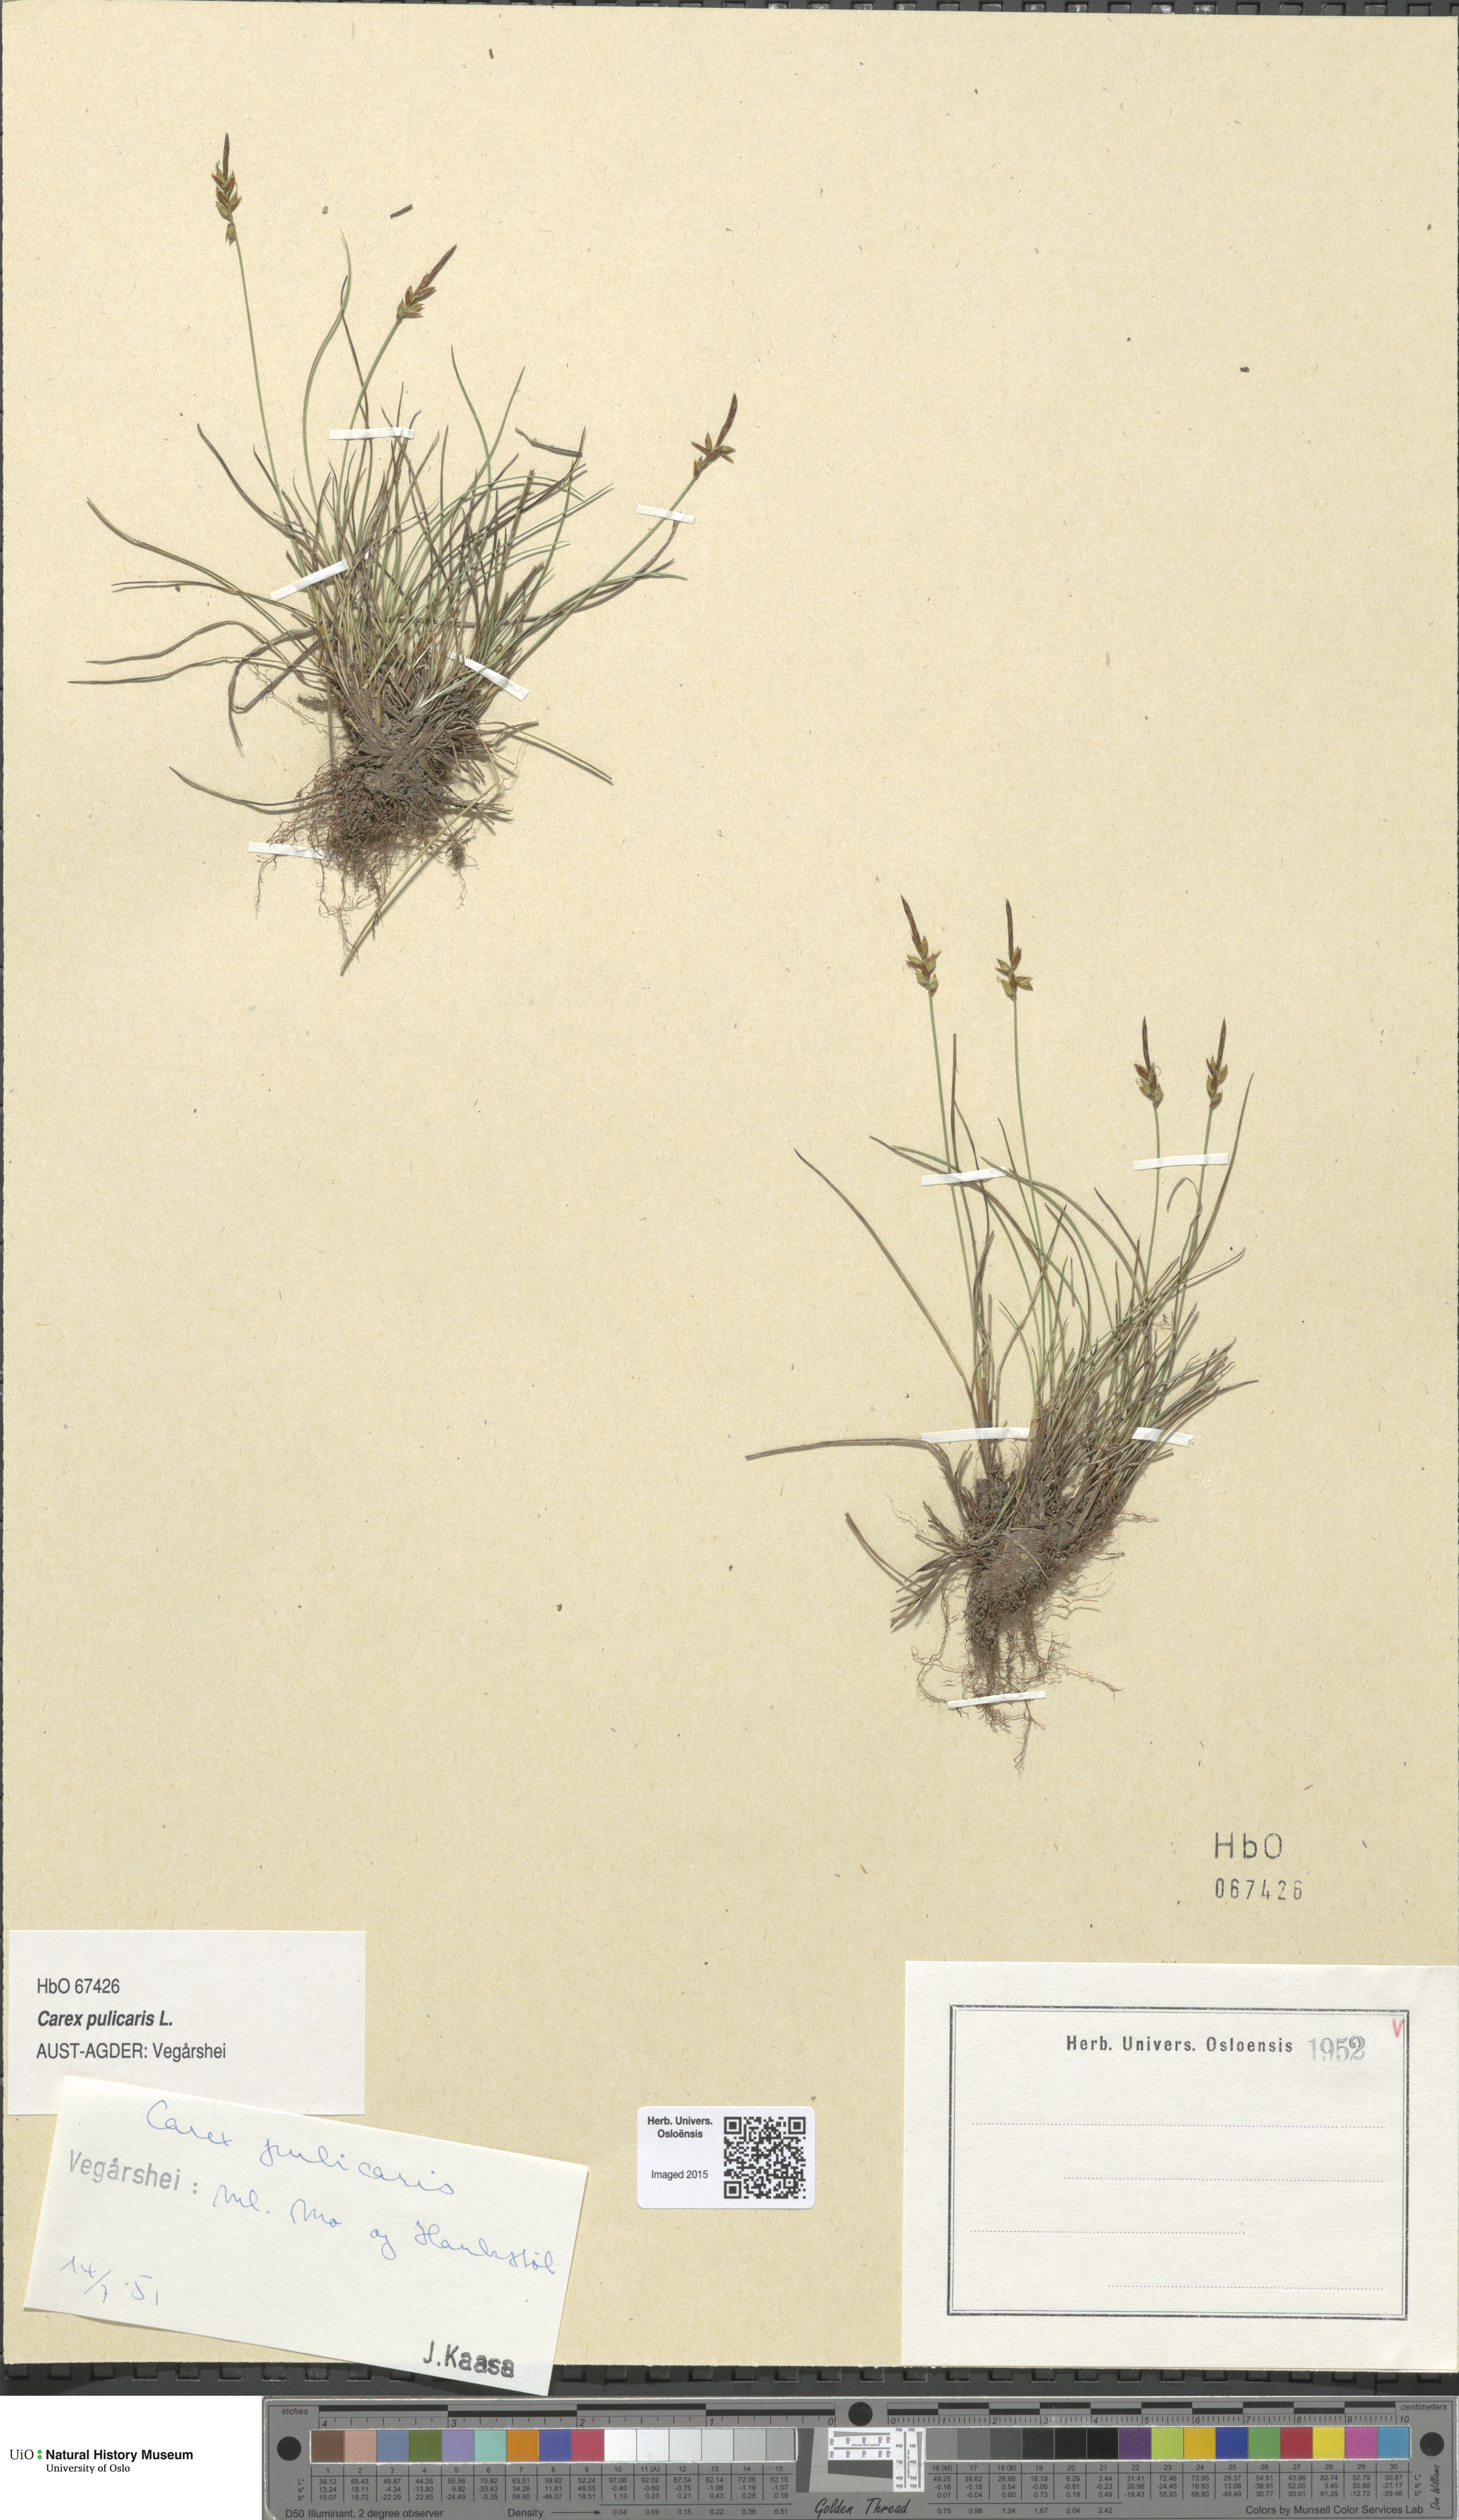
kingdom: Plantae
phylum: Tracheophyta
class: Liliopsida
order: Poales
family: Cyperaceae
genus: Carex
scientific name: Carex pulicaris
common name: Flea sedge
